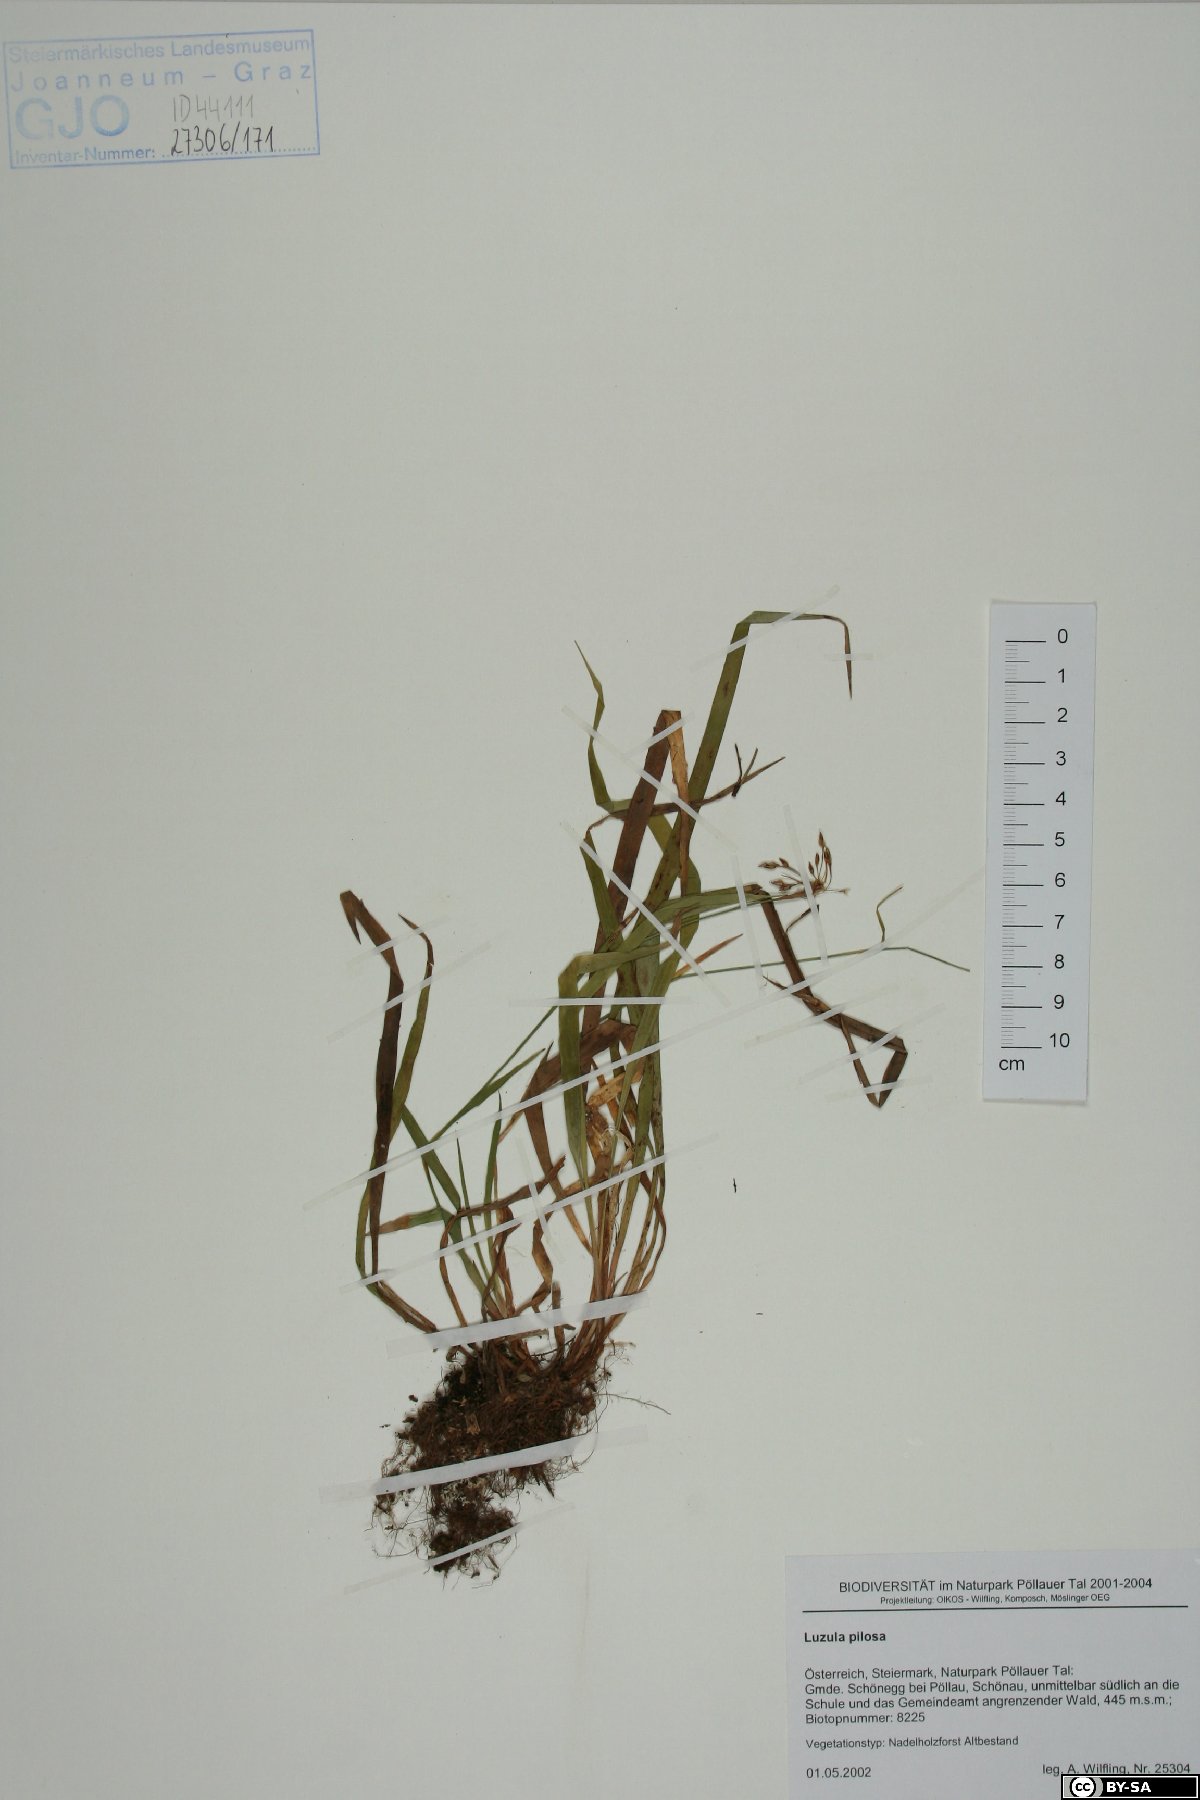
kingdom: Plantae
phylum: Tracheophyta
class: Liliopsida
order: Poales
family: Juncaceae
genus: Luzula
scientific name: Luzula pilosa
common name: Hairy wood-rush
